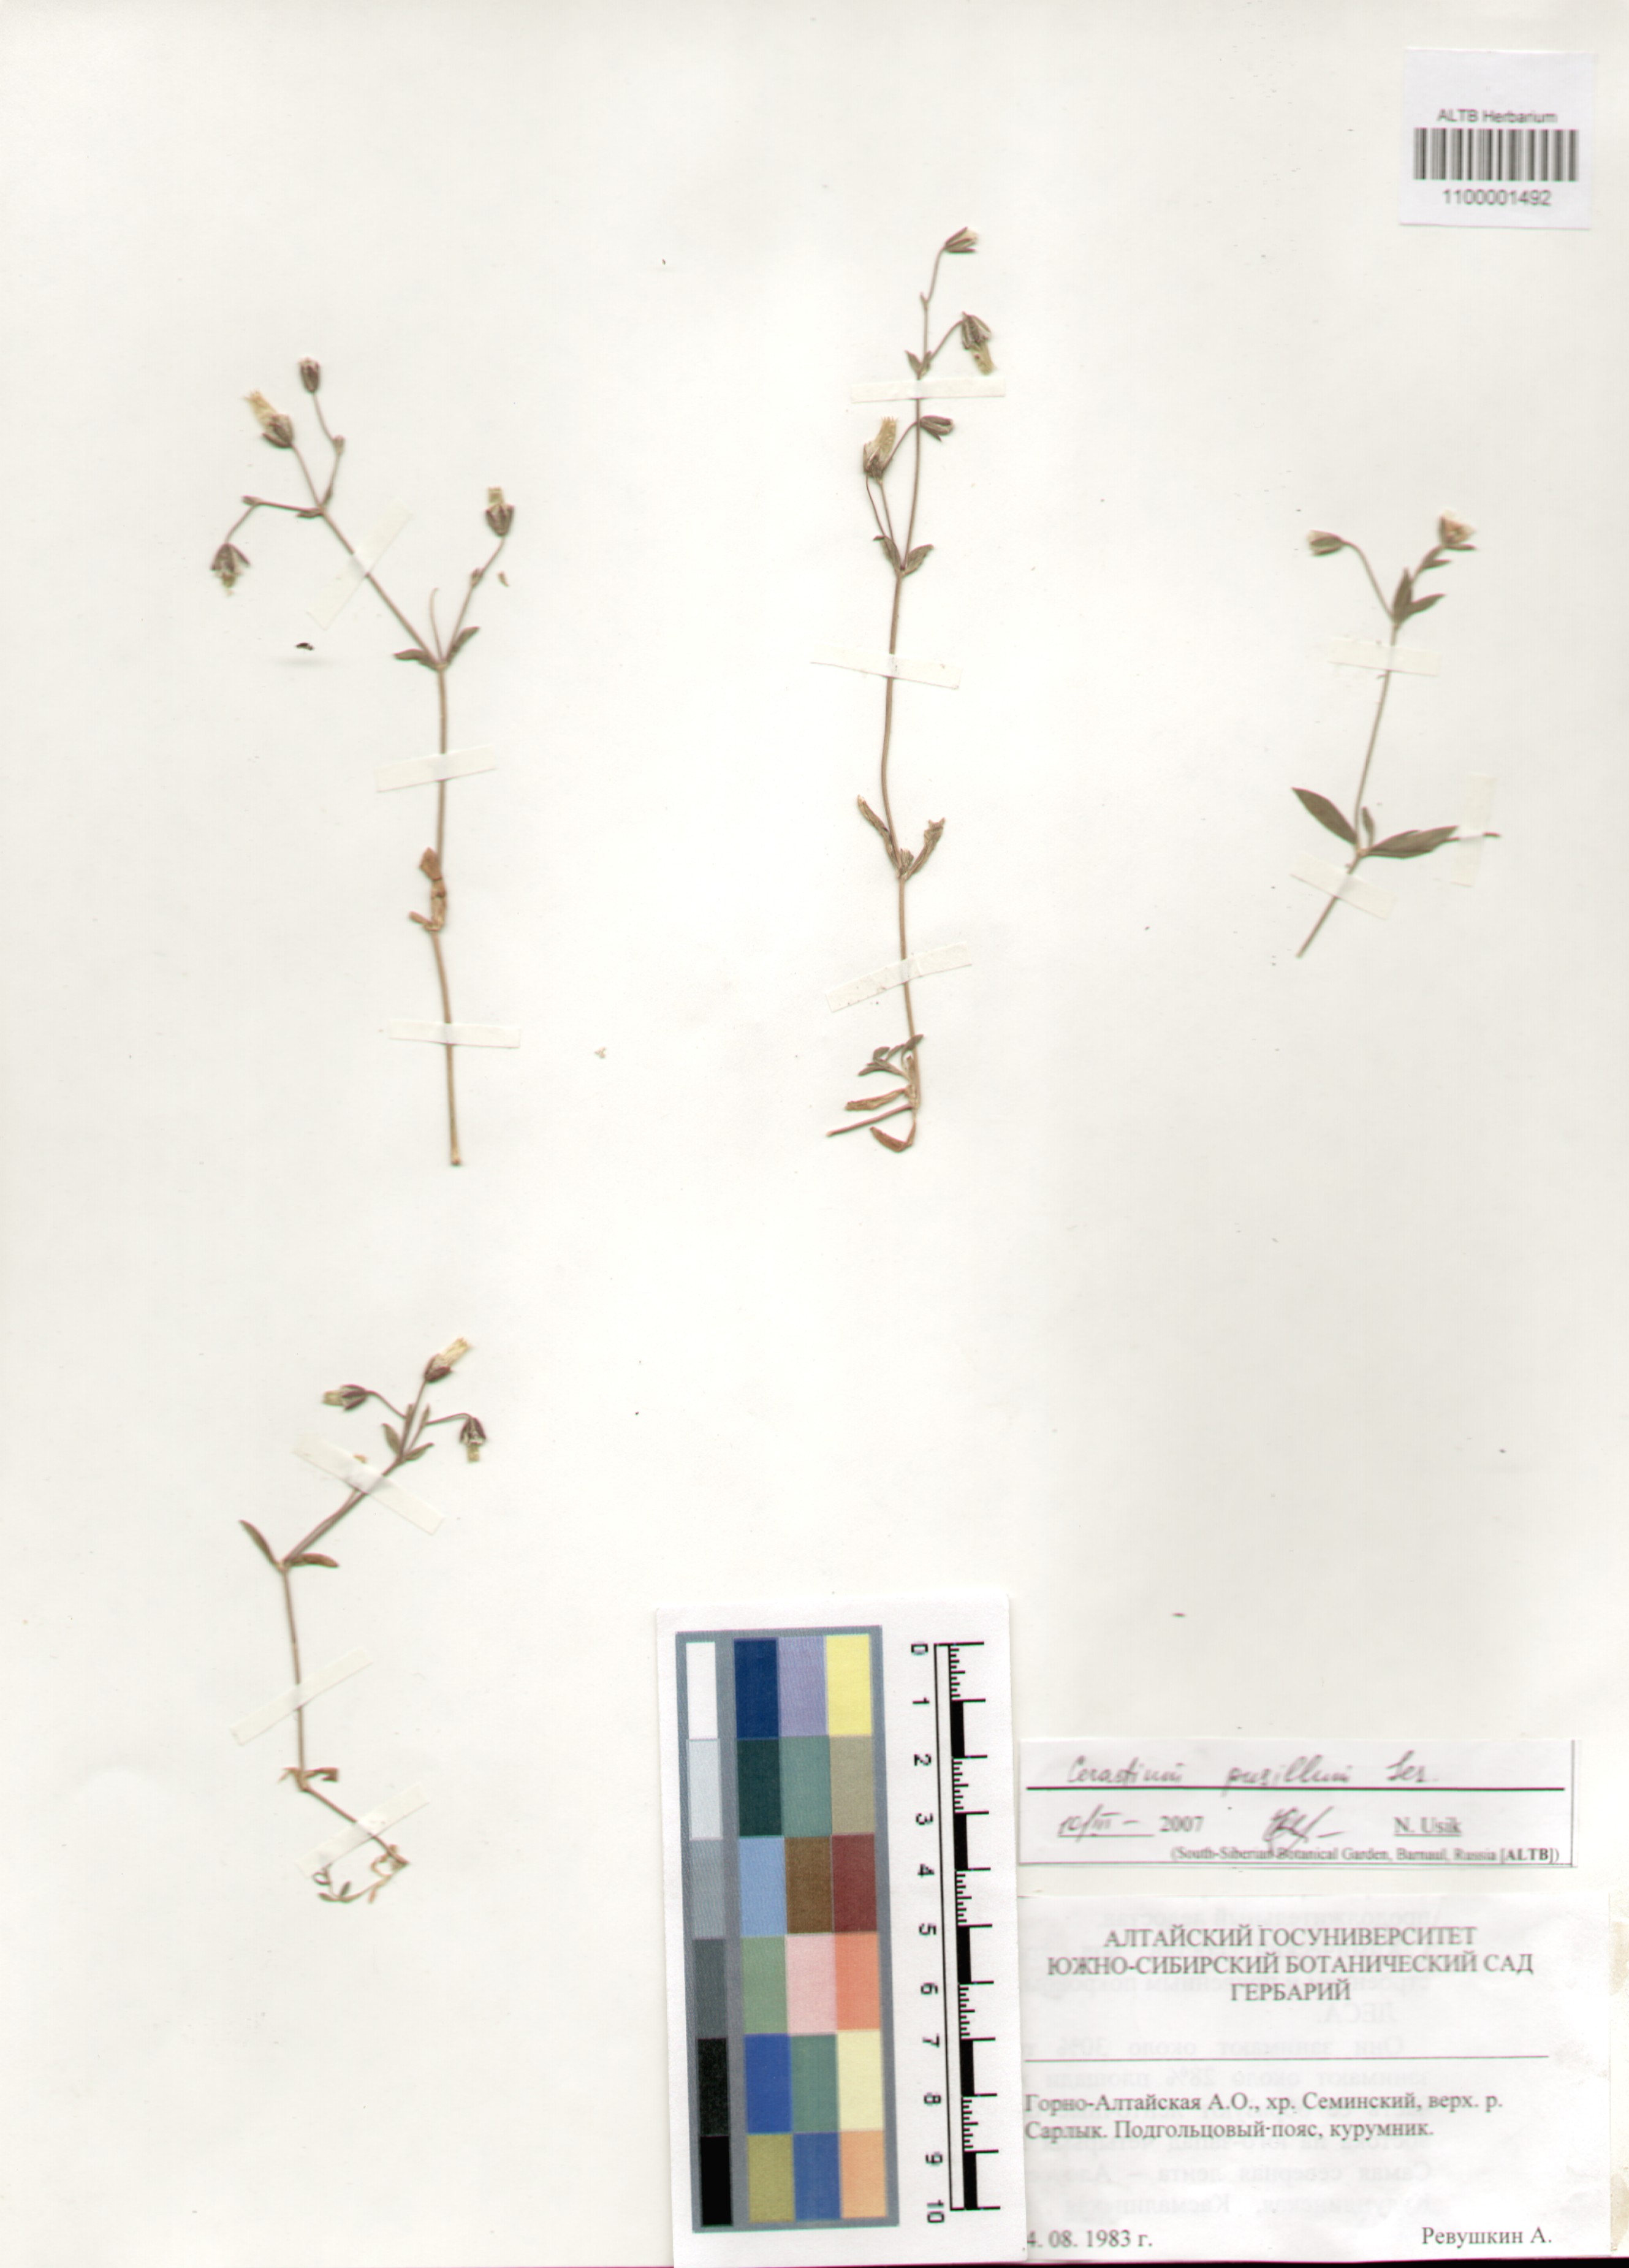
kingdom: Plantae
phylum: Tracheophyta
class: Magnoliopsida
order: Caryophyllales
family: Caryophyllaceae
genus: Cerastium
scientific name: Cerastium pusillum
